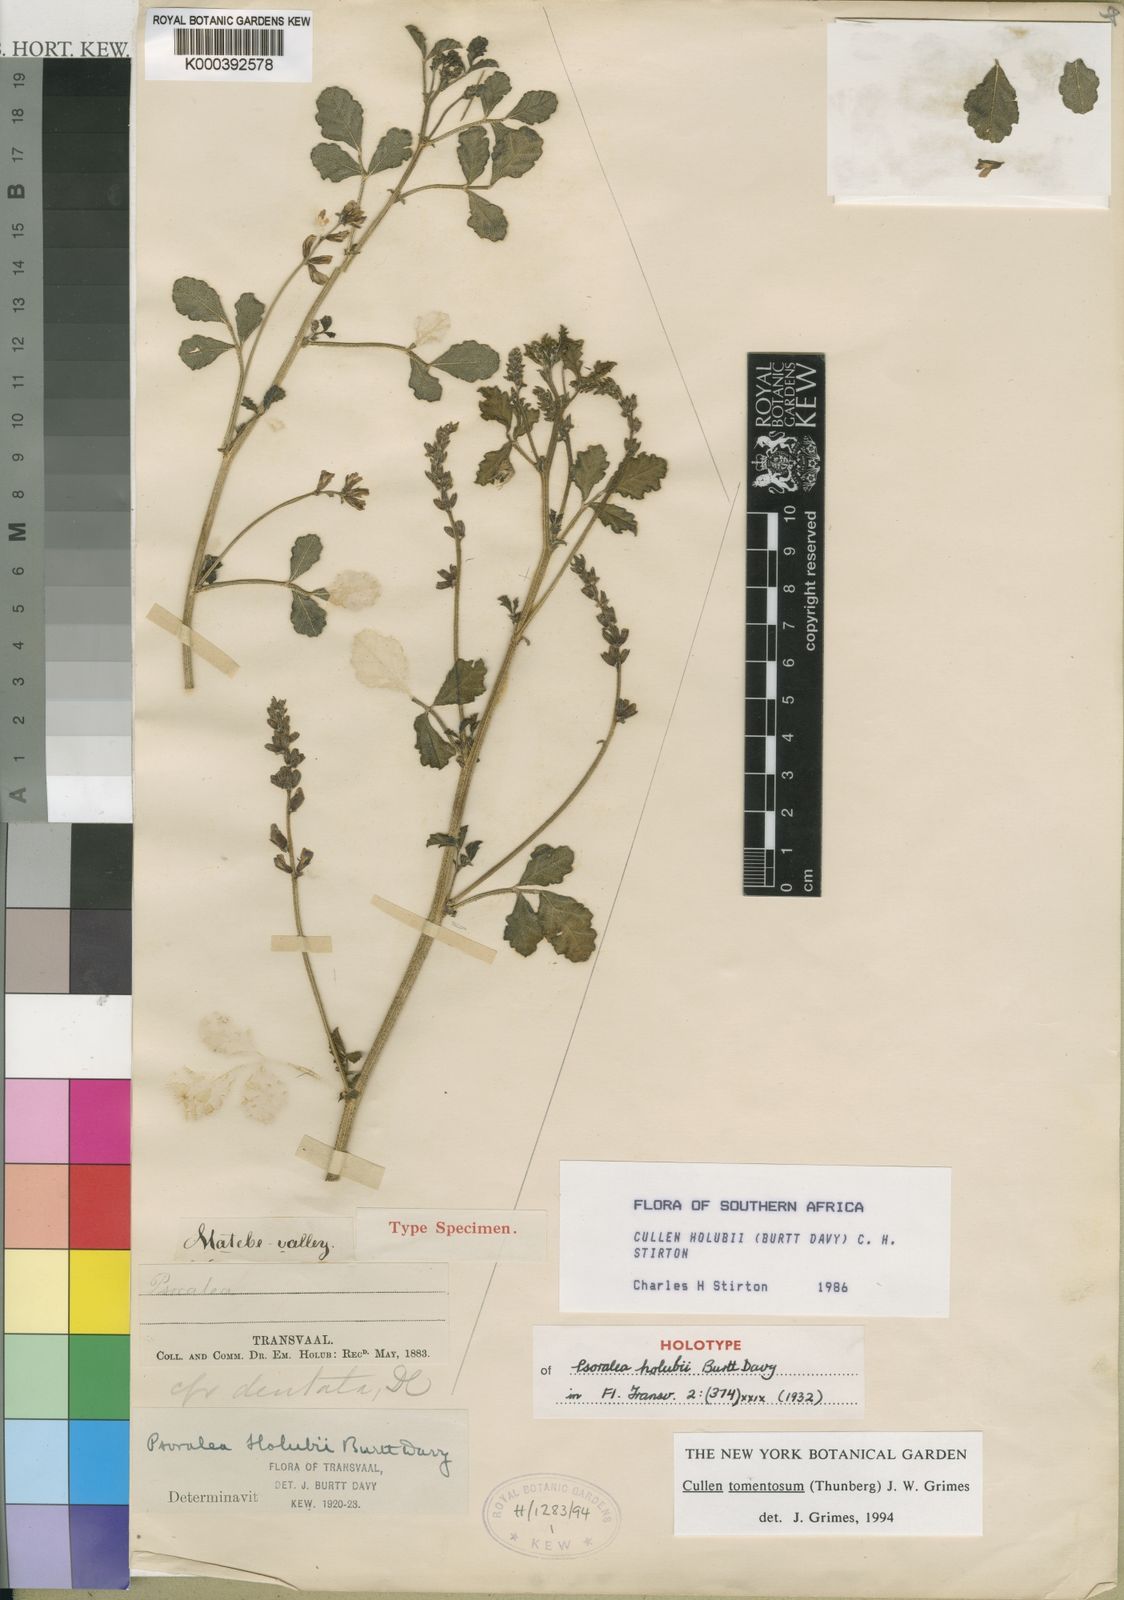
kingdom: Plantae
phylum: Tracheophyta
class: Magnoliopsida
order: Fabales
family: Fabaceae
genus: Cullen
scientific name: Cullen tomentosum
